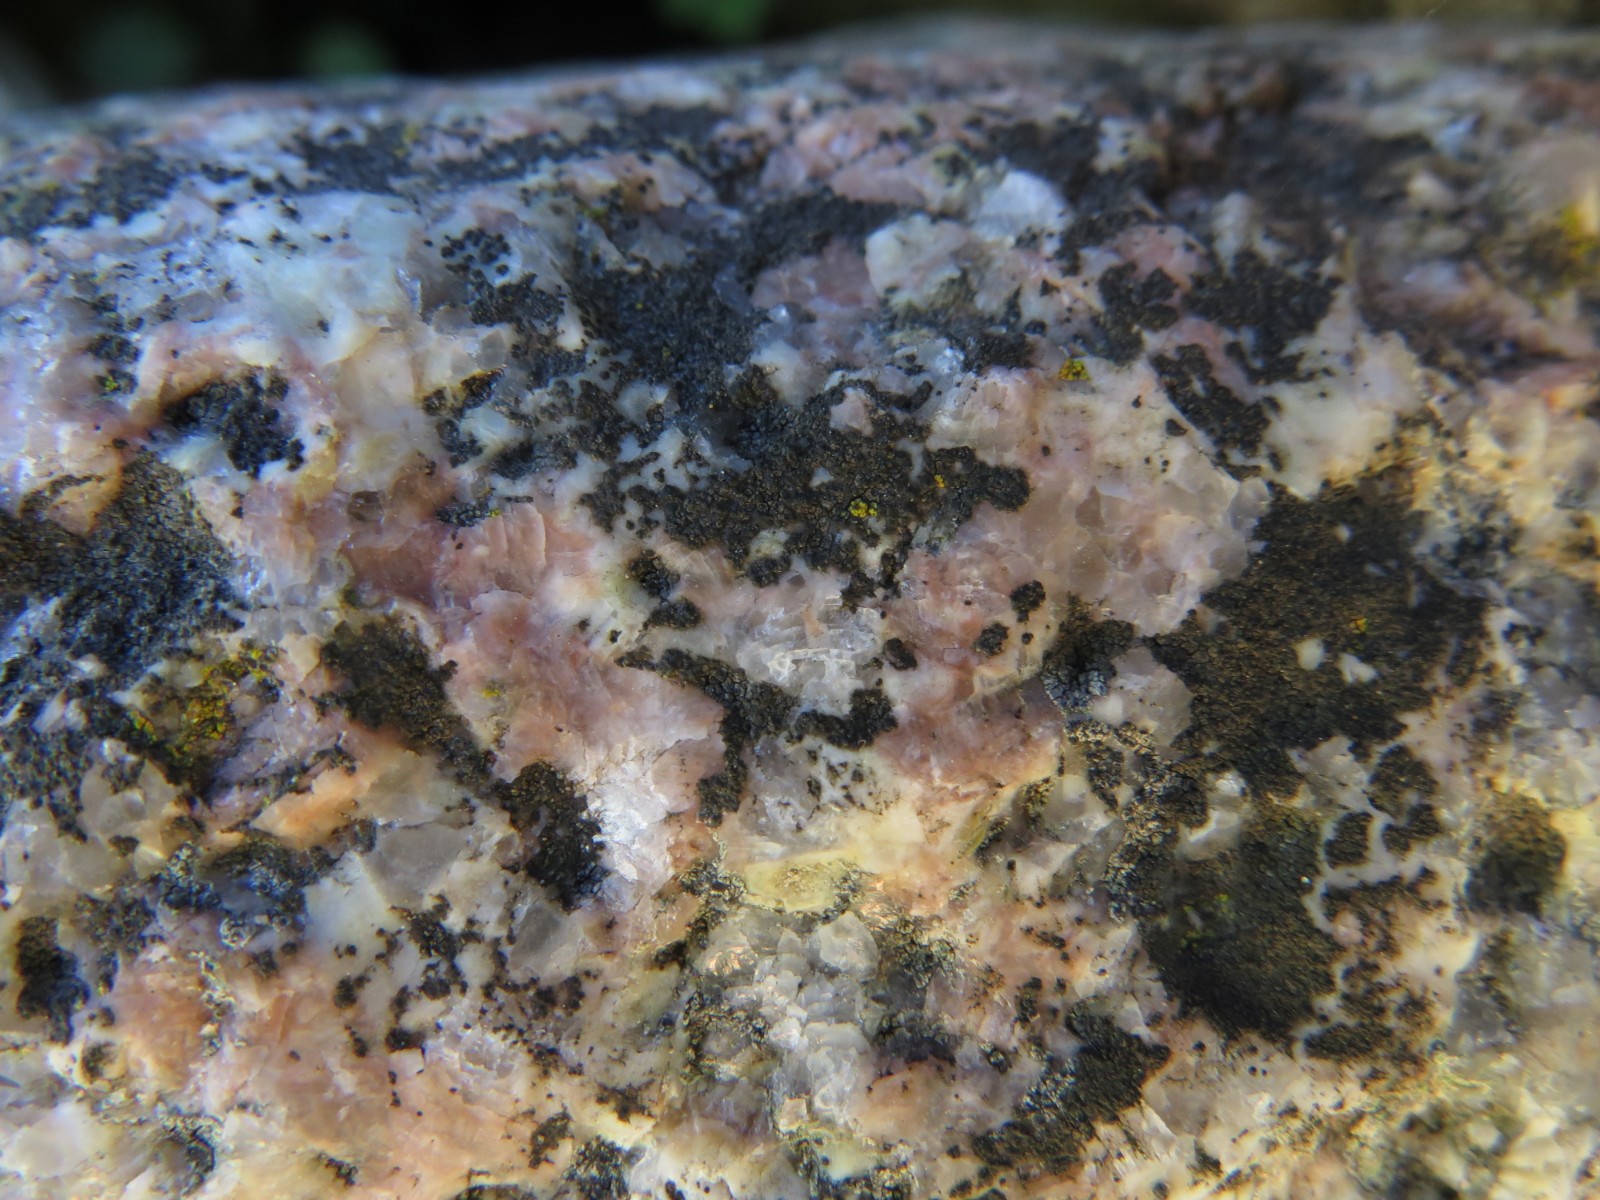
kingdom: Fungi
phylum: Ascomycota
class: Lecanoromycetes
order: Acarosporales
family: Acarosporaceae
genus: Acarospora
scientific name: Acarospora privigna
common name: sort foldekantlav
